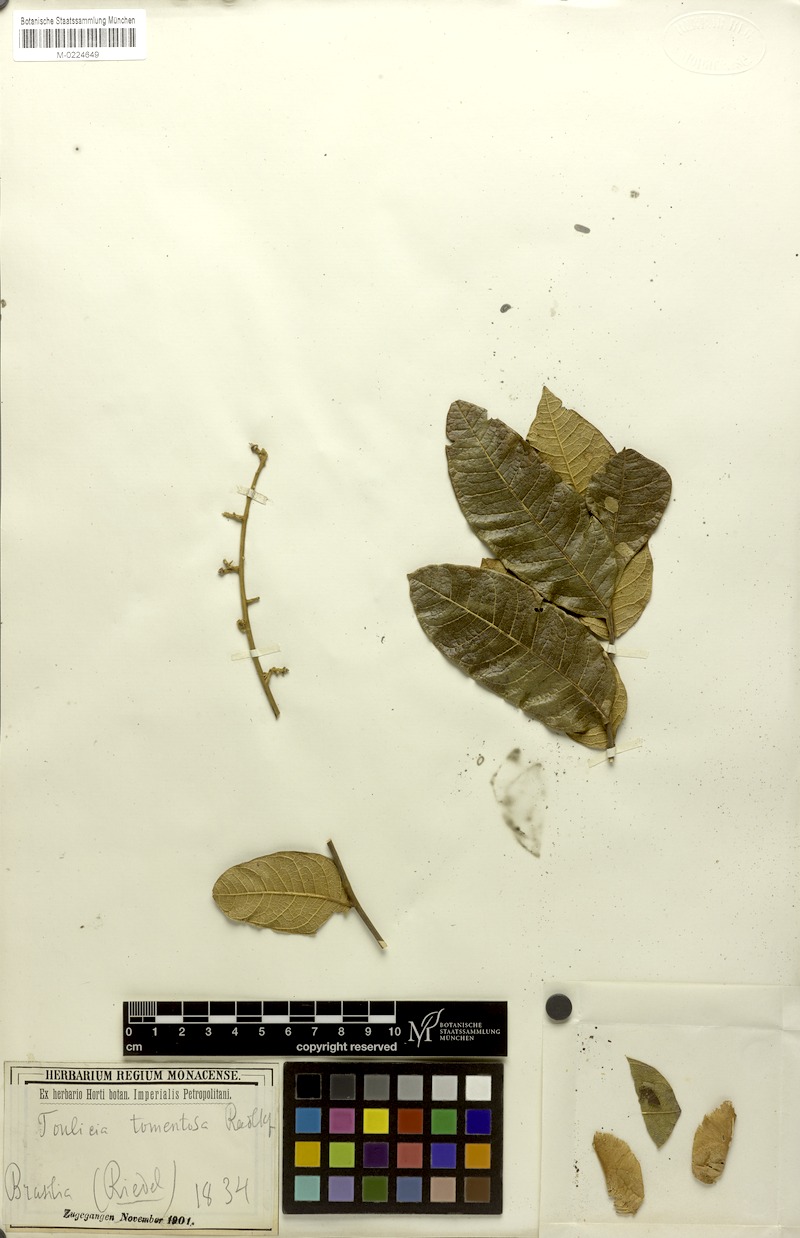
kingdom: Plantae
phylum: Tracheophyta
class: Magnoliopsida
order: Sapindales
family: Sapindaceae
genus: Toulicia
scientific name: Toulicia tomentosa
